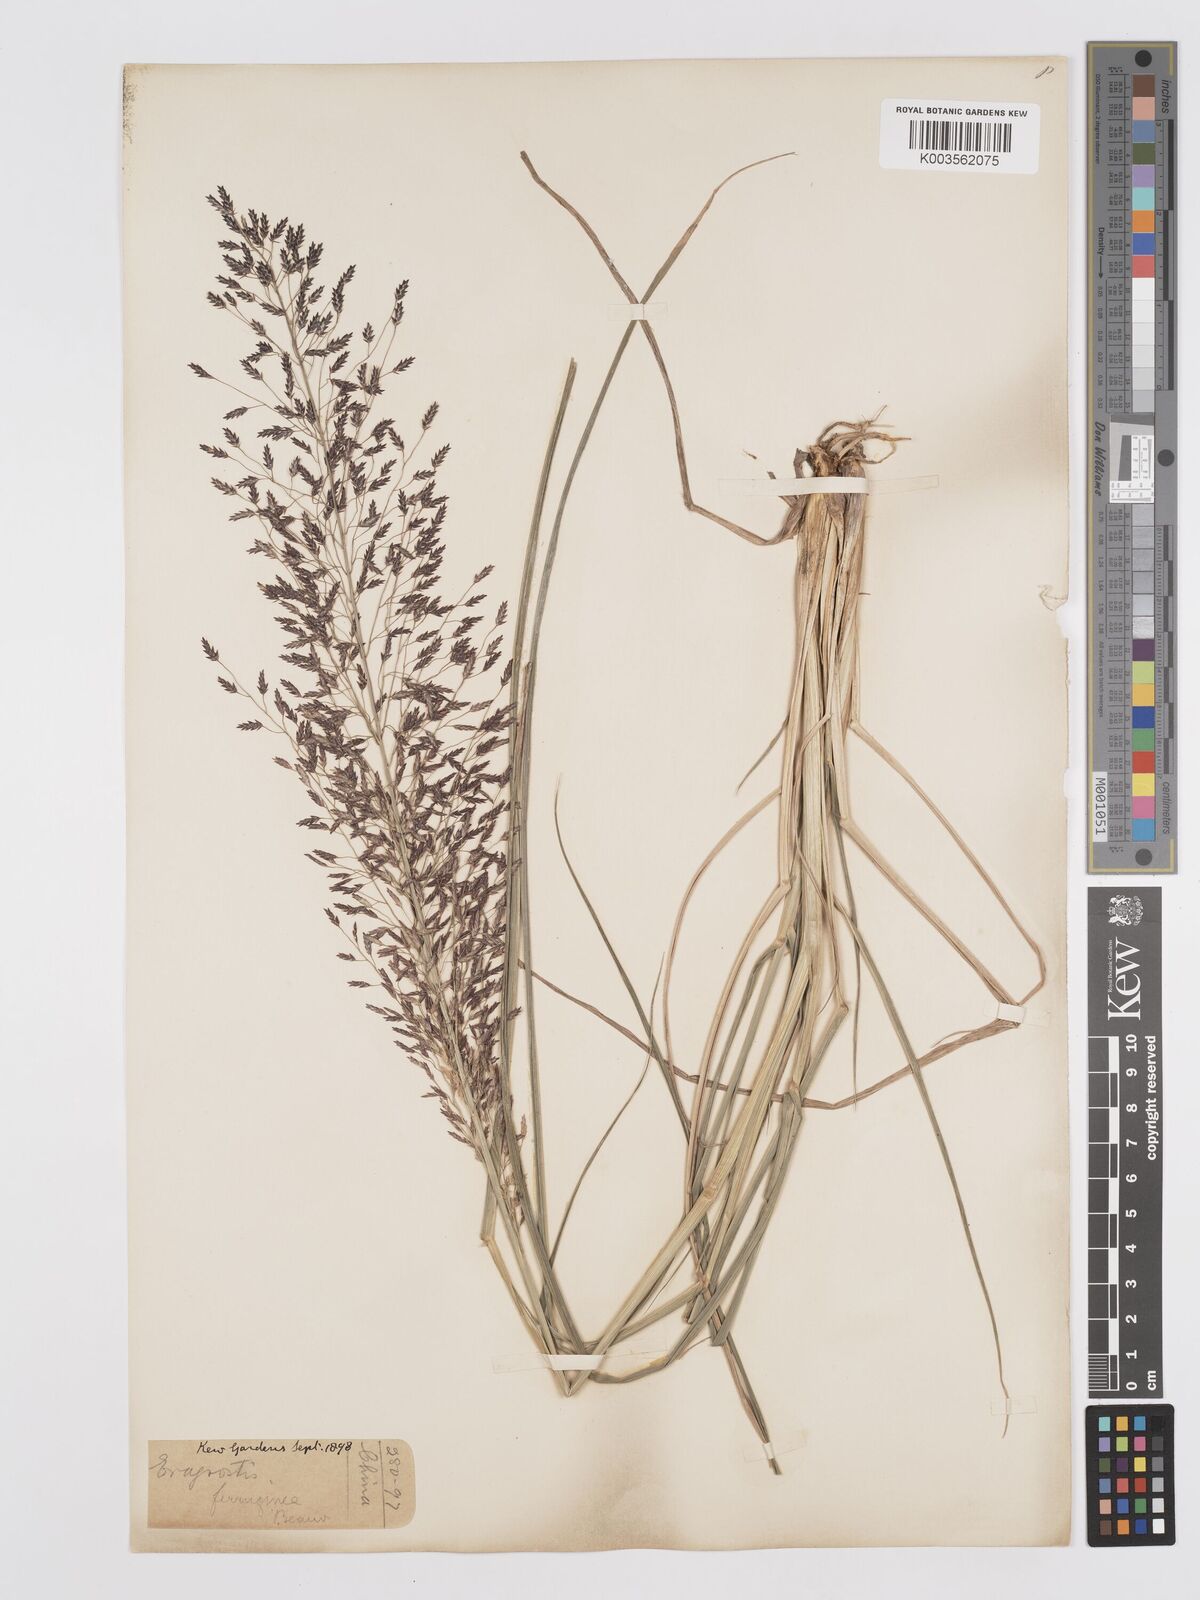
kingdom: Plantae
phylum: Tracheophyta
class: Liliopsida
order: Poales
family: Poaceae
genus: Eragrostis
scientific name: Eragrostis ferruginea
